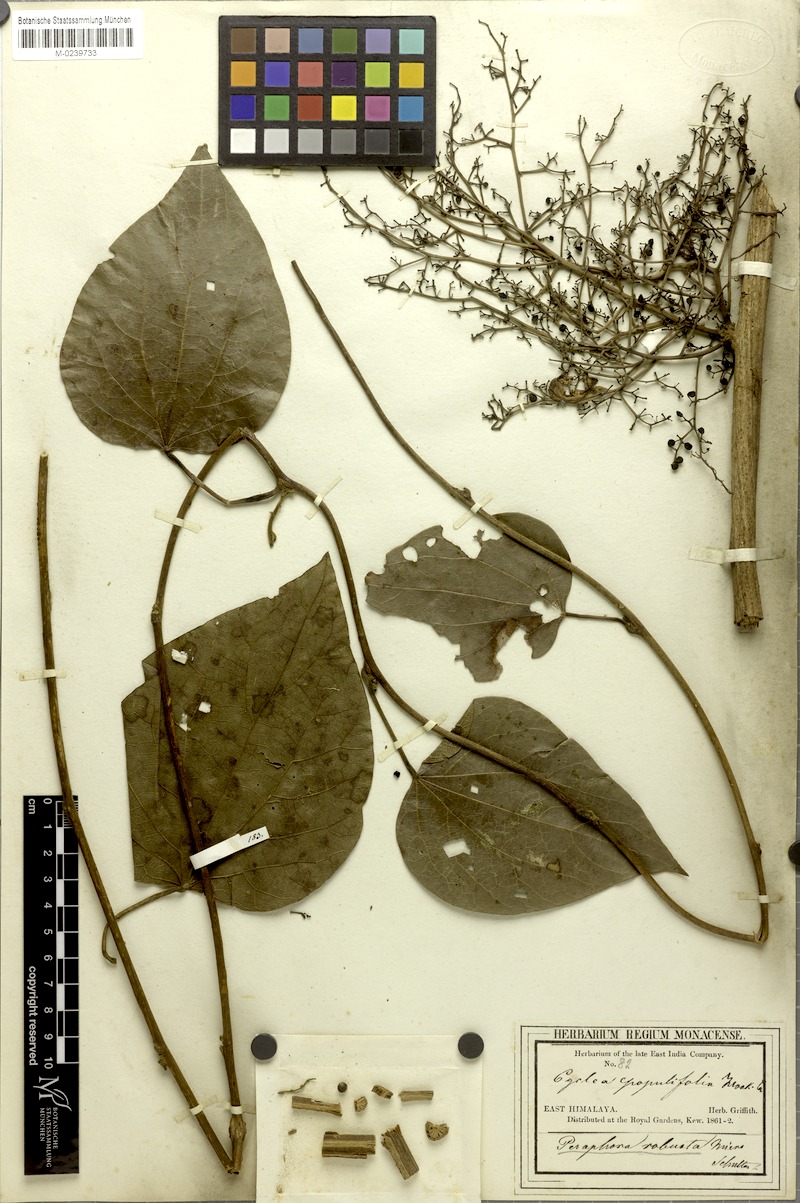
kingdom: Plantae
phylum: Tracheophyta
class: Magnoliopsida
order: Ranunculales
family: Menispermaceae
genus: Cyclea
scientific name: Cyclea bicristata
